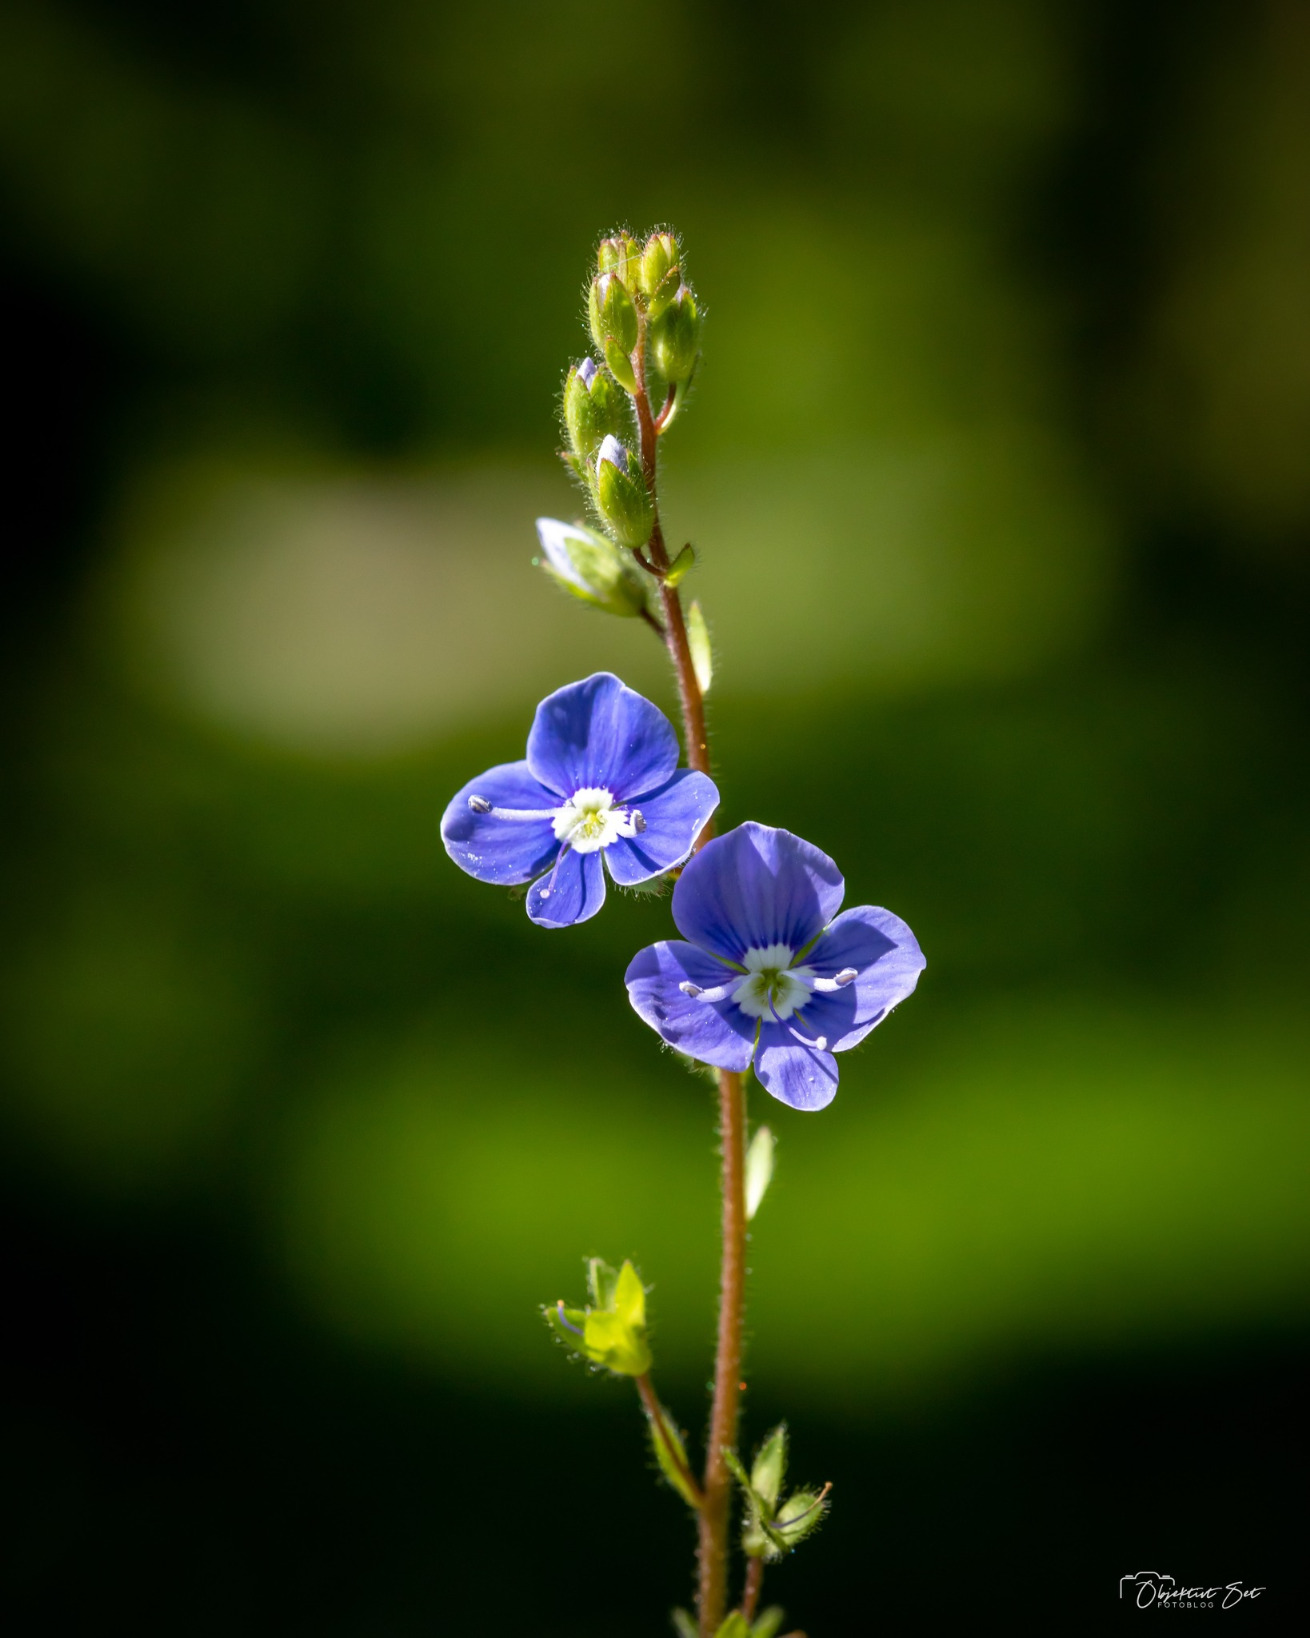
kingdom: Plantae
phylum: Tracheophyta
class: Magnoliopsida
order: Lamiales
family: Plantaginaceae
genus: Veronica
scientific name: Veronica chamaedrys
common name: Tveskægget ærenpris
